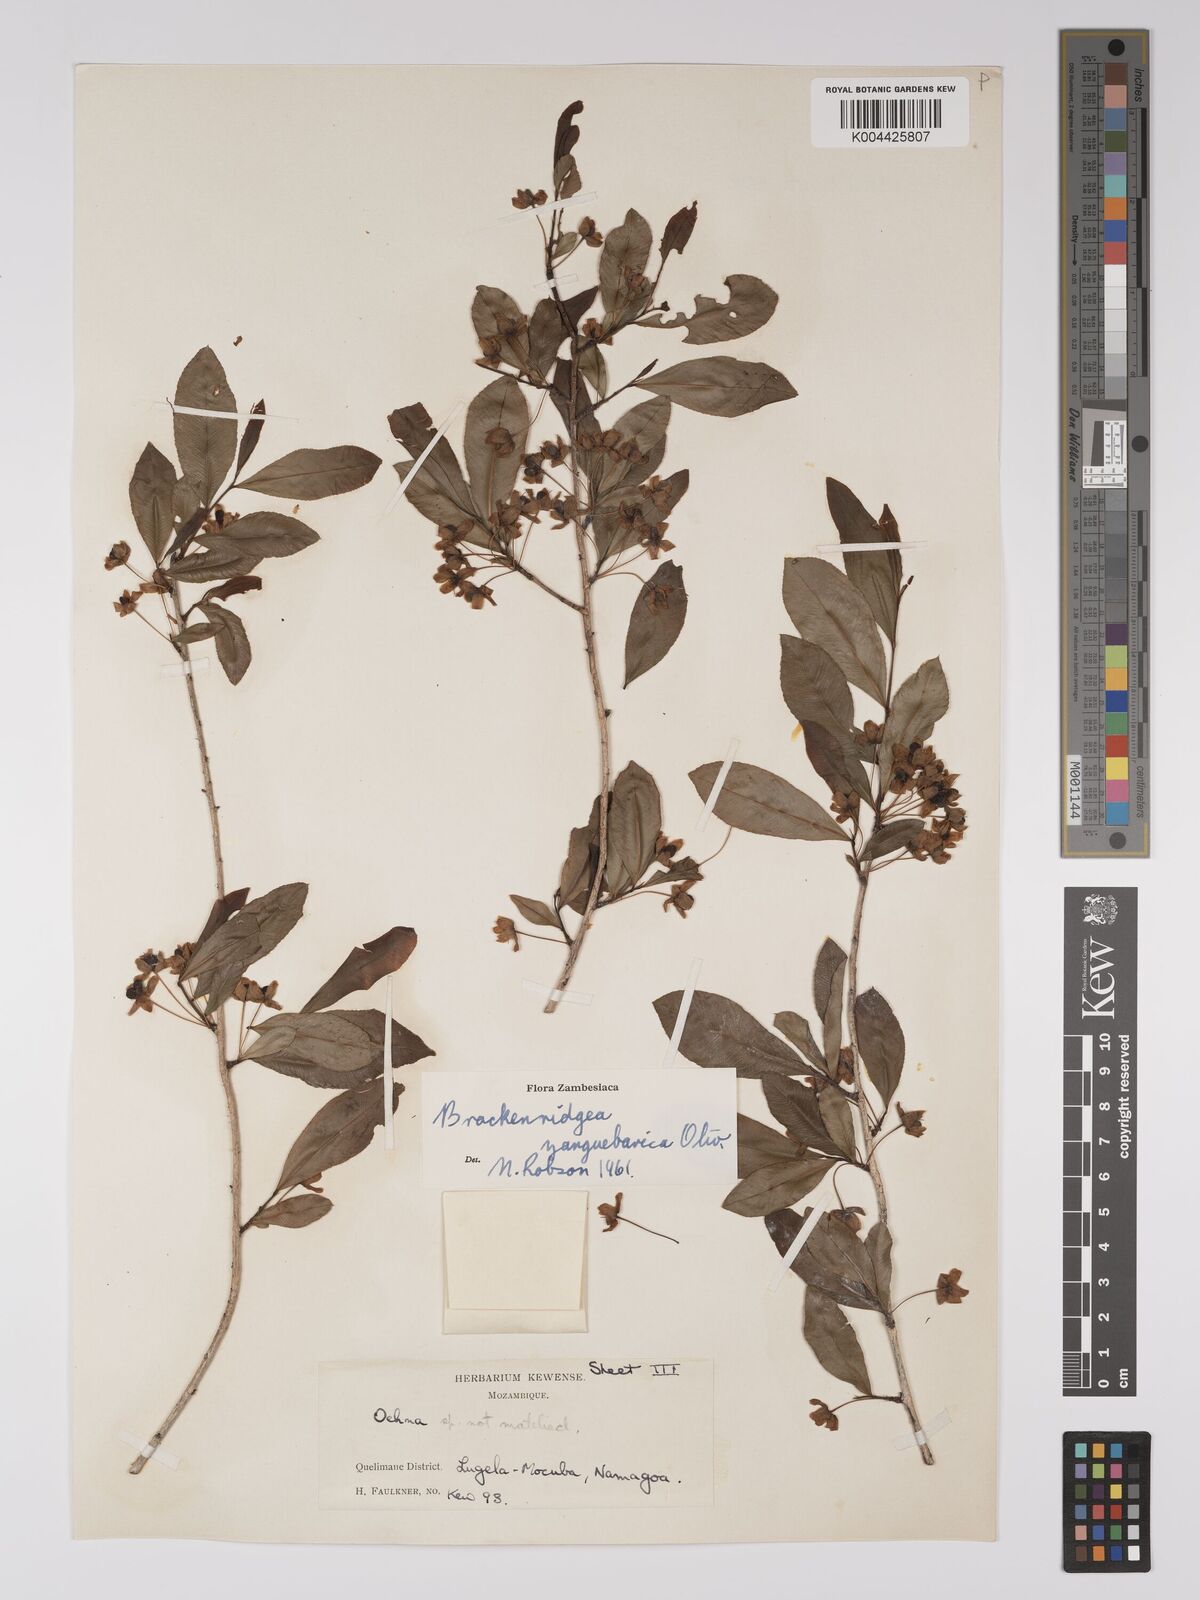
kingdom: Plantae
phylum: Tracheophyta
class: Magnoliopsida
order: Malpighiales
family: Ochnaceae
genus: Brackenridgea
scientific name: Brackenridgea zanguebarica
